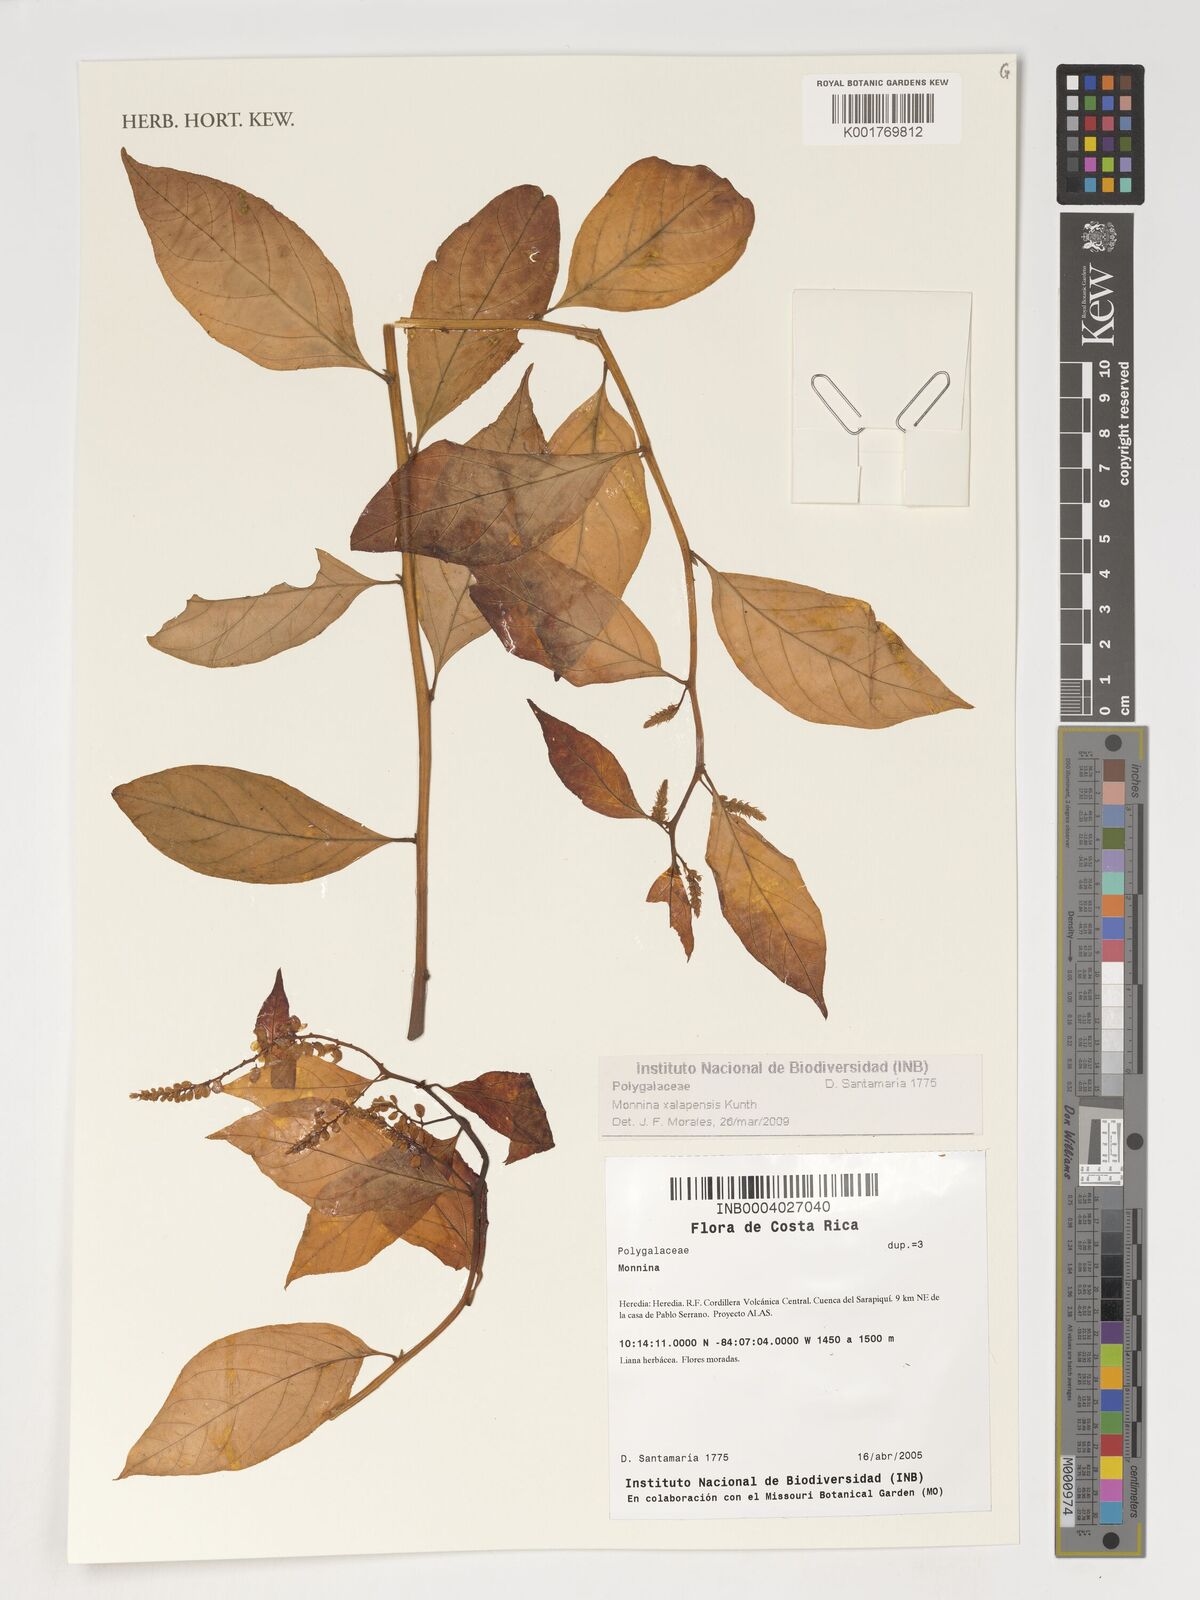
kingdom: Plantae
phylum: Tracheophyta
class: Magnoliopsida
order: Fabales
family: Polygalaceae
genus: Monnina
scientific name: Monnina xalapensis
